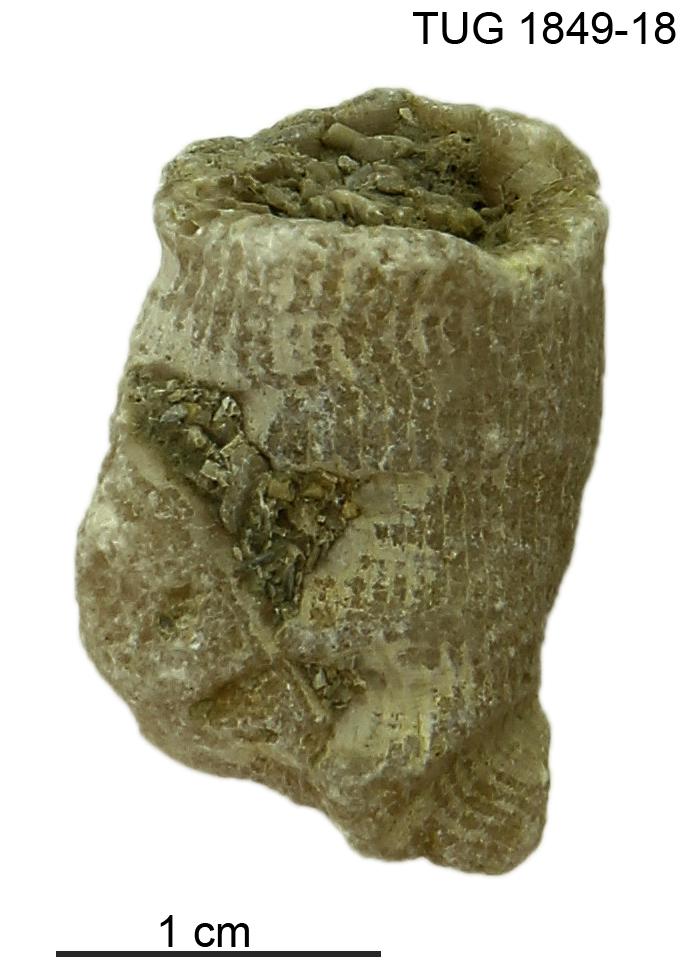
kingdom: Animalia
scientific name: Animalia
